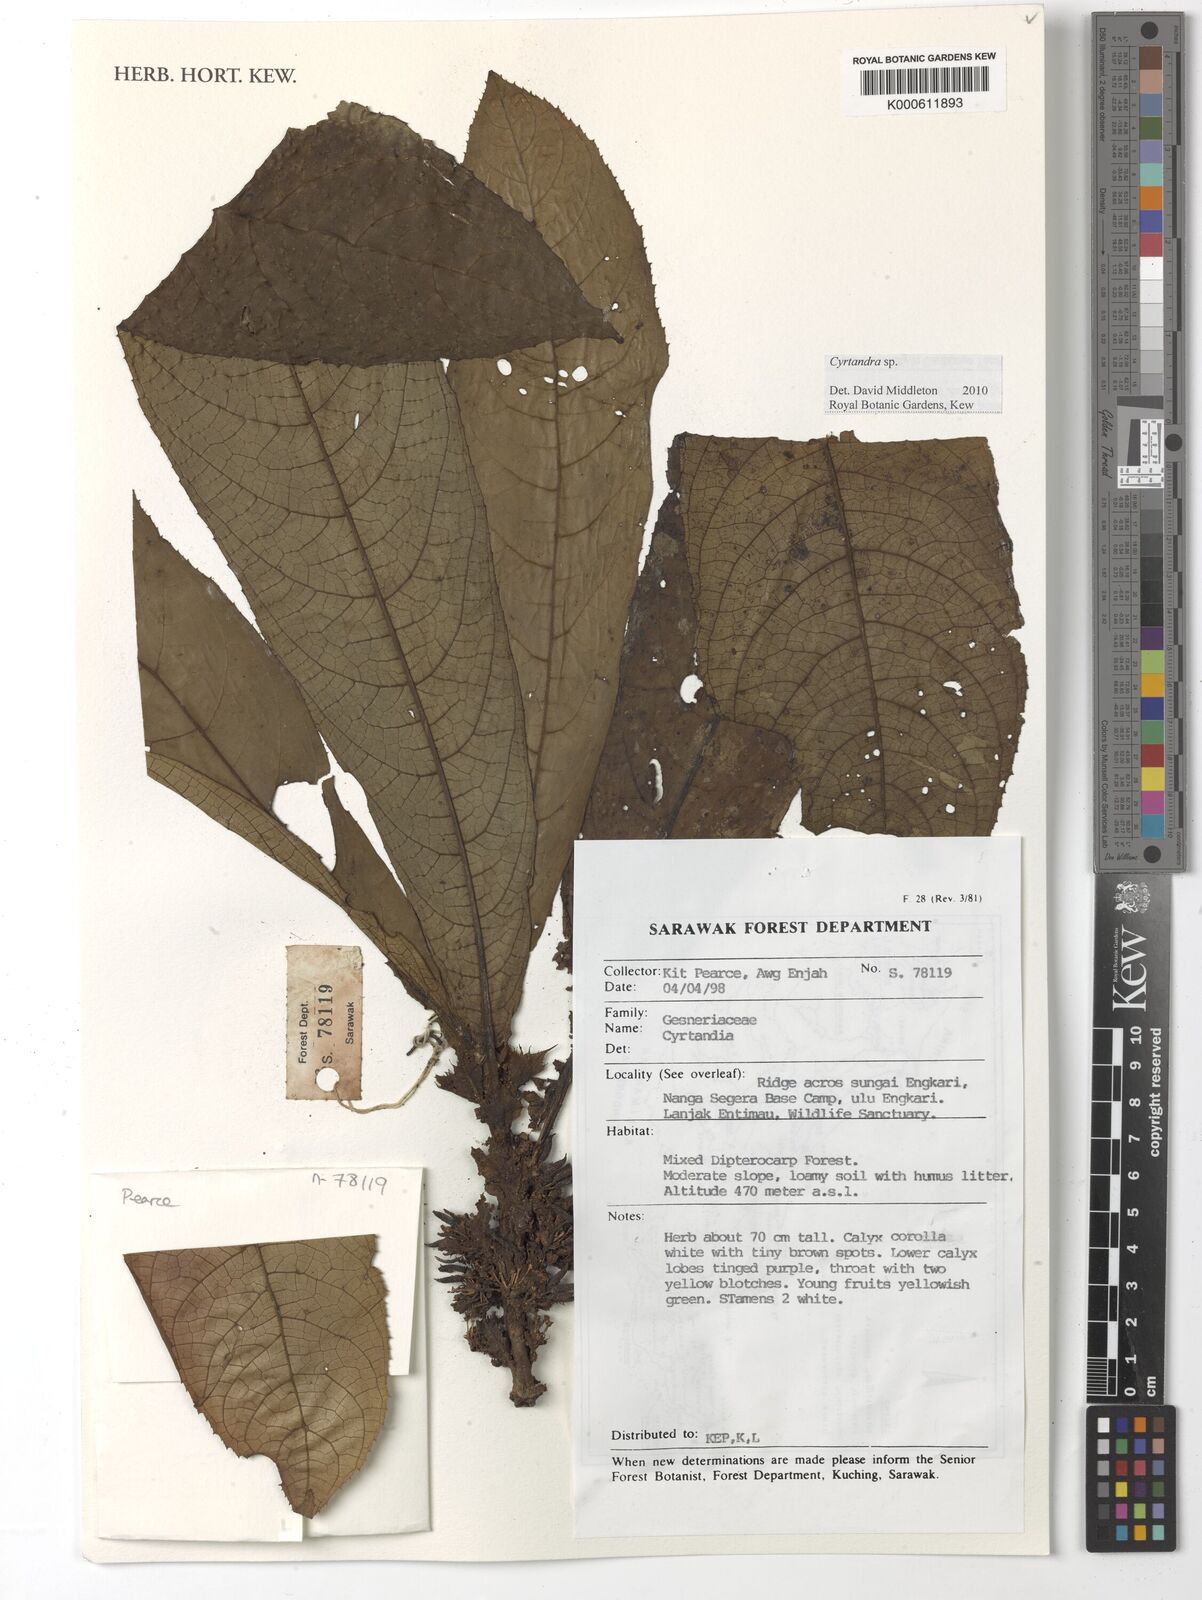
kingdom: Plantae
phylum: Tracheophyta
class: Magnoliopsida
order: Lamiales
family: Gesneriaceae
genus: Cyrtandra
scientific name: Cyrtandra
